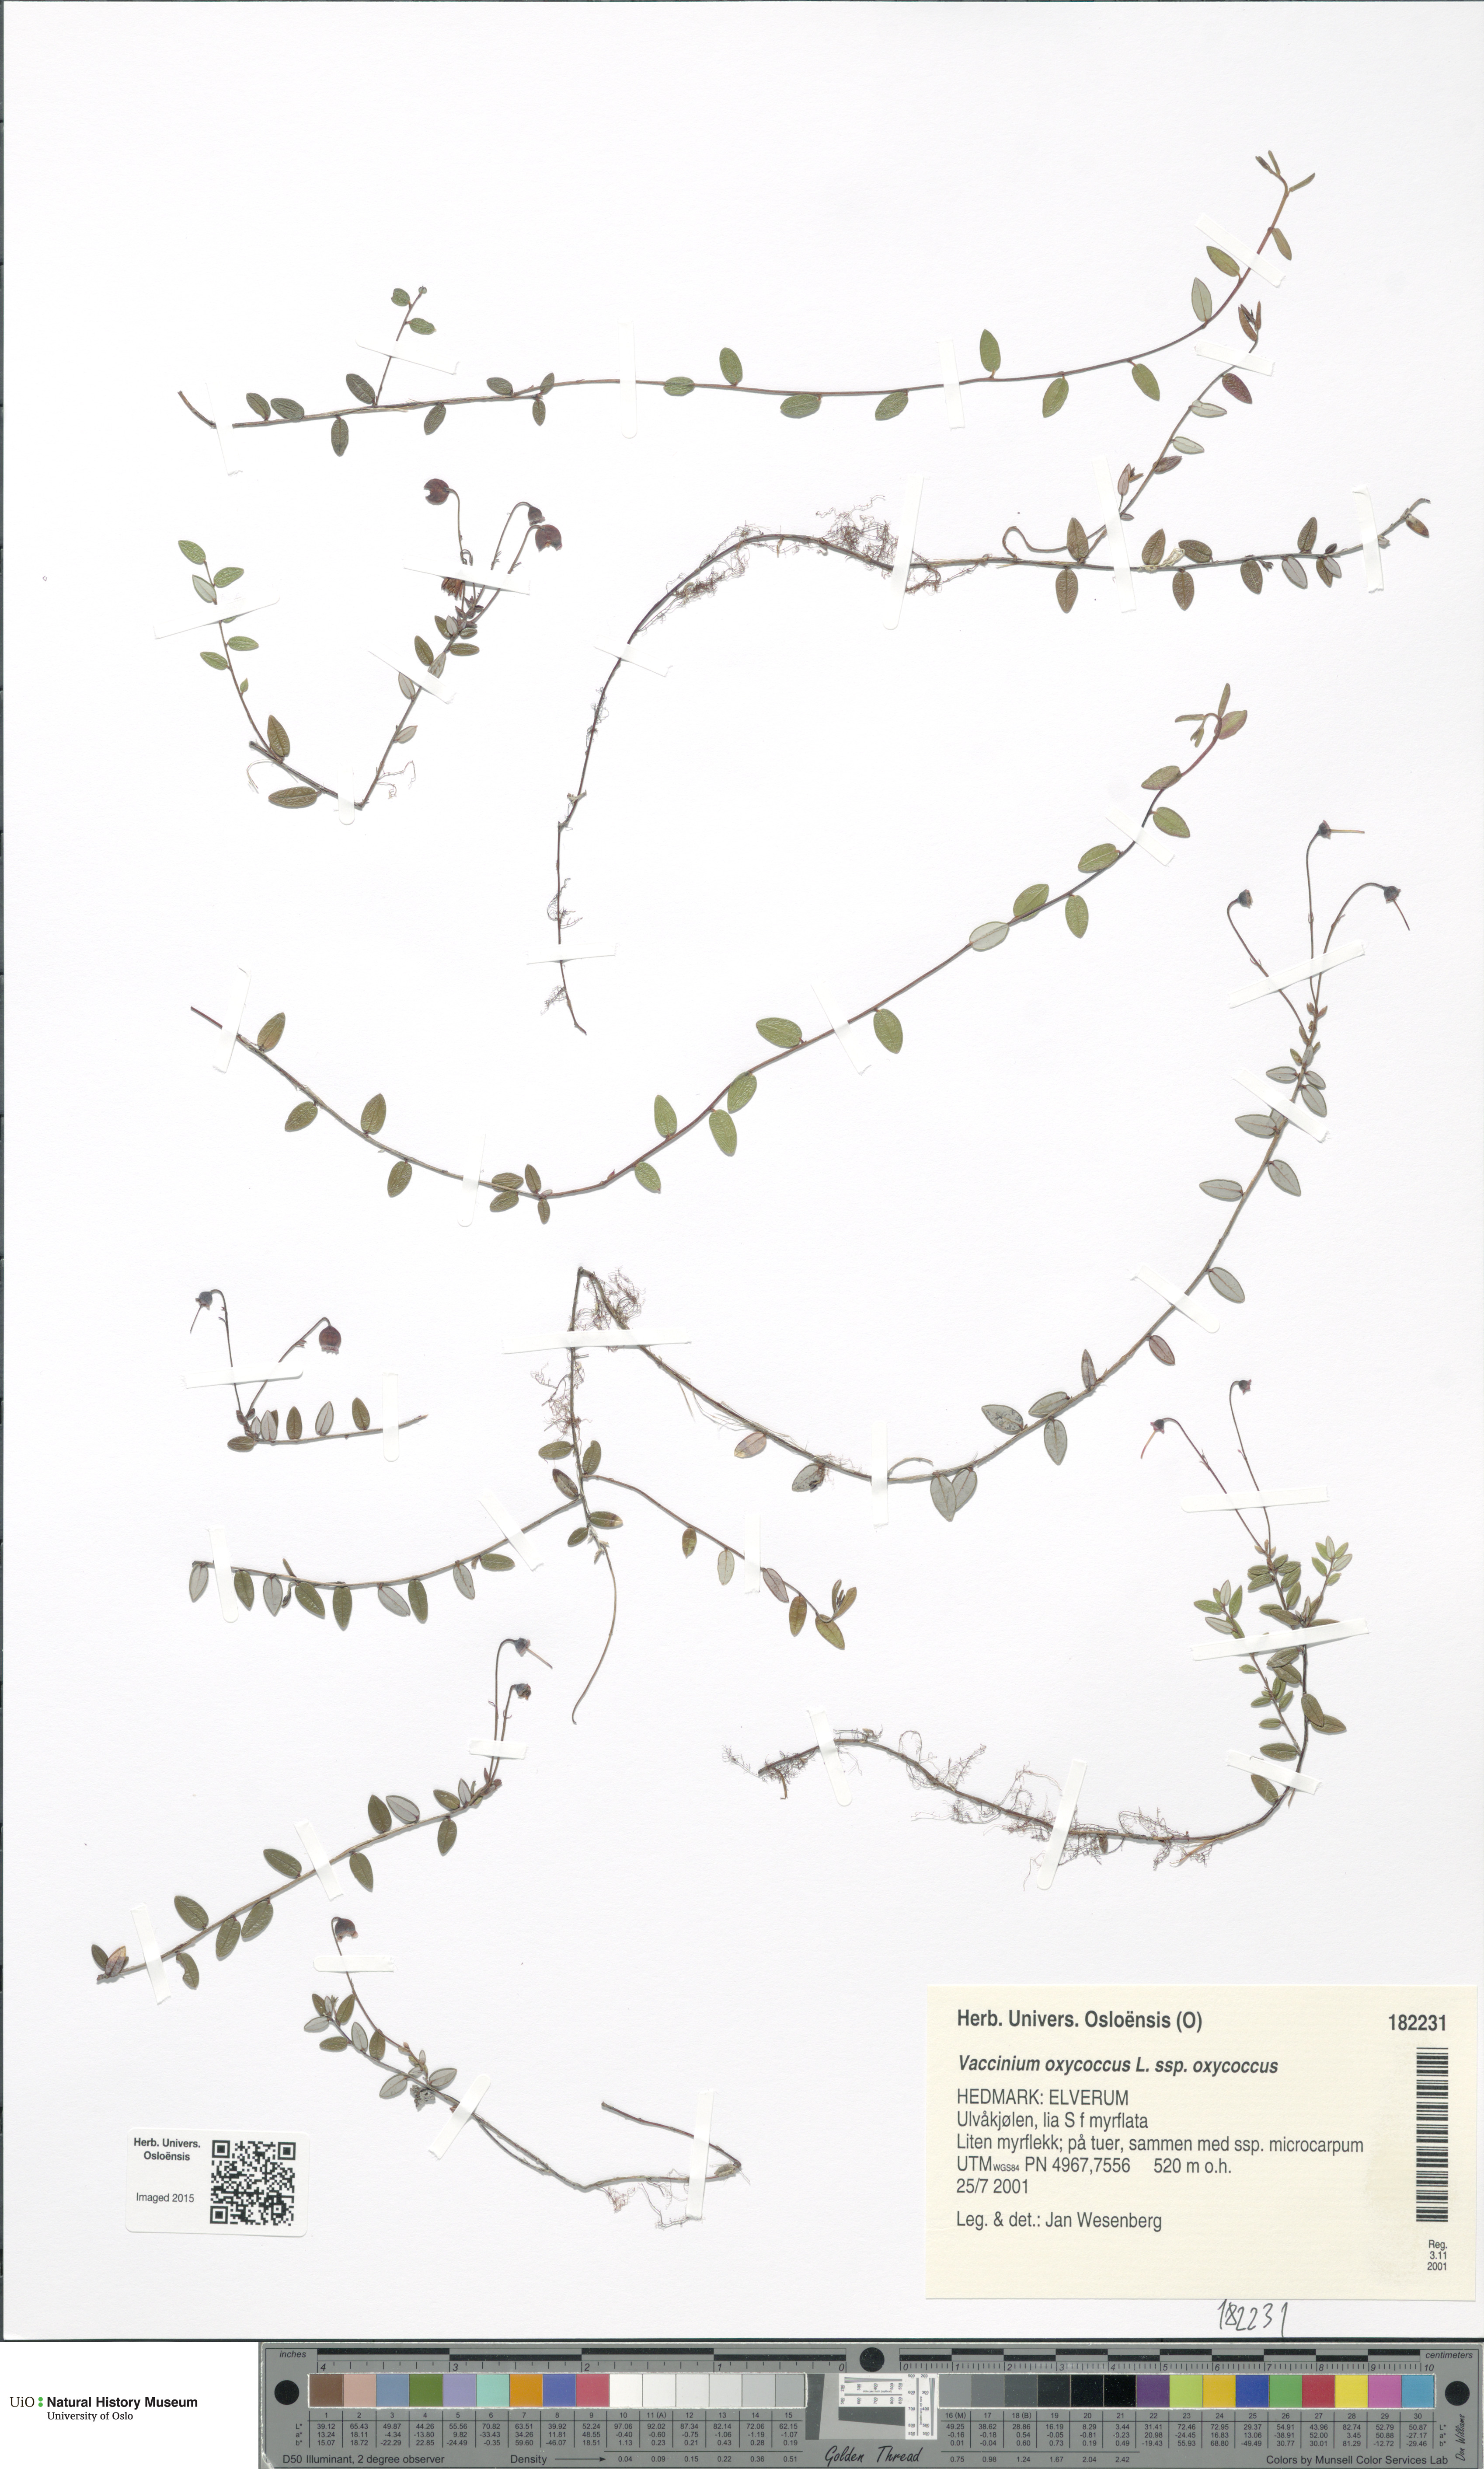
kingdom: Plantae
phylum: Tracheophyta
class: Magnoliopsida
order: Ericales
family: Ericaceae
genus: Vaccinium
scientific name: Vaccinium oxycoccos
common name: Cranberry
